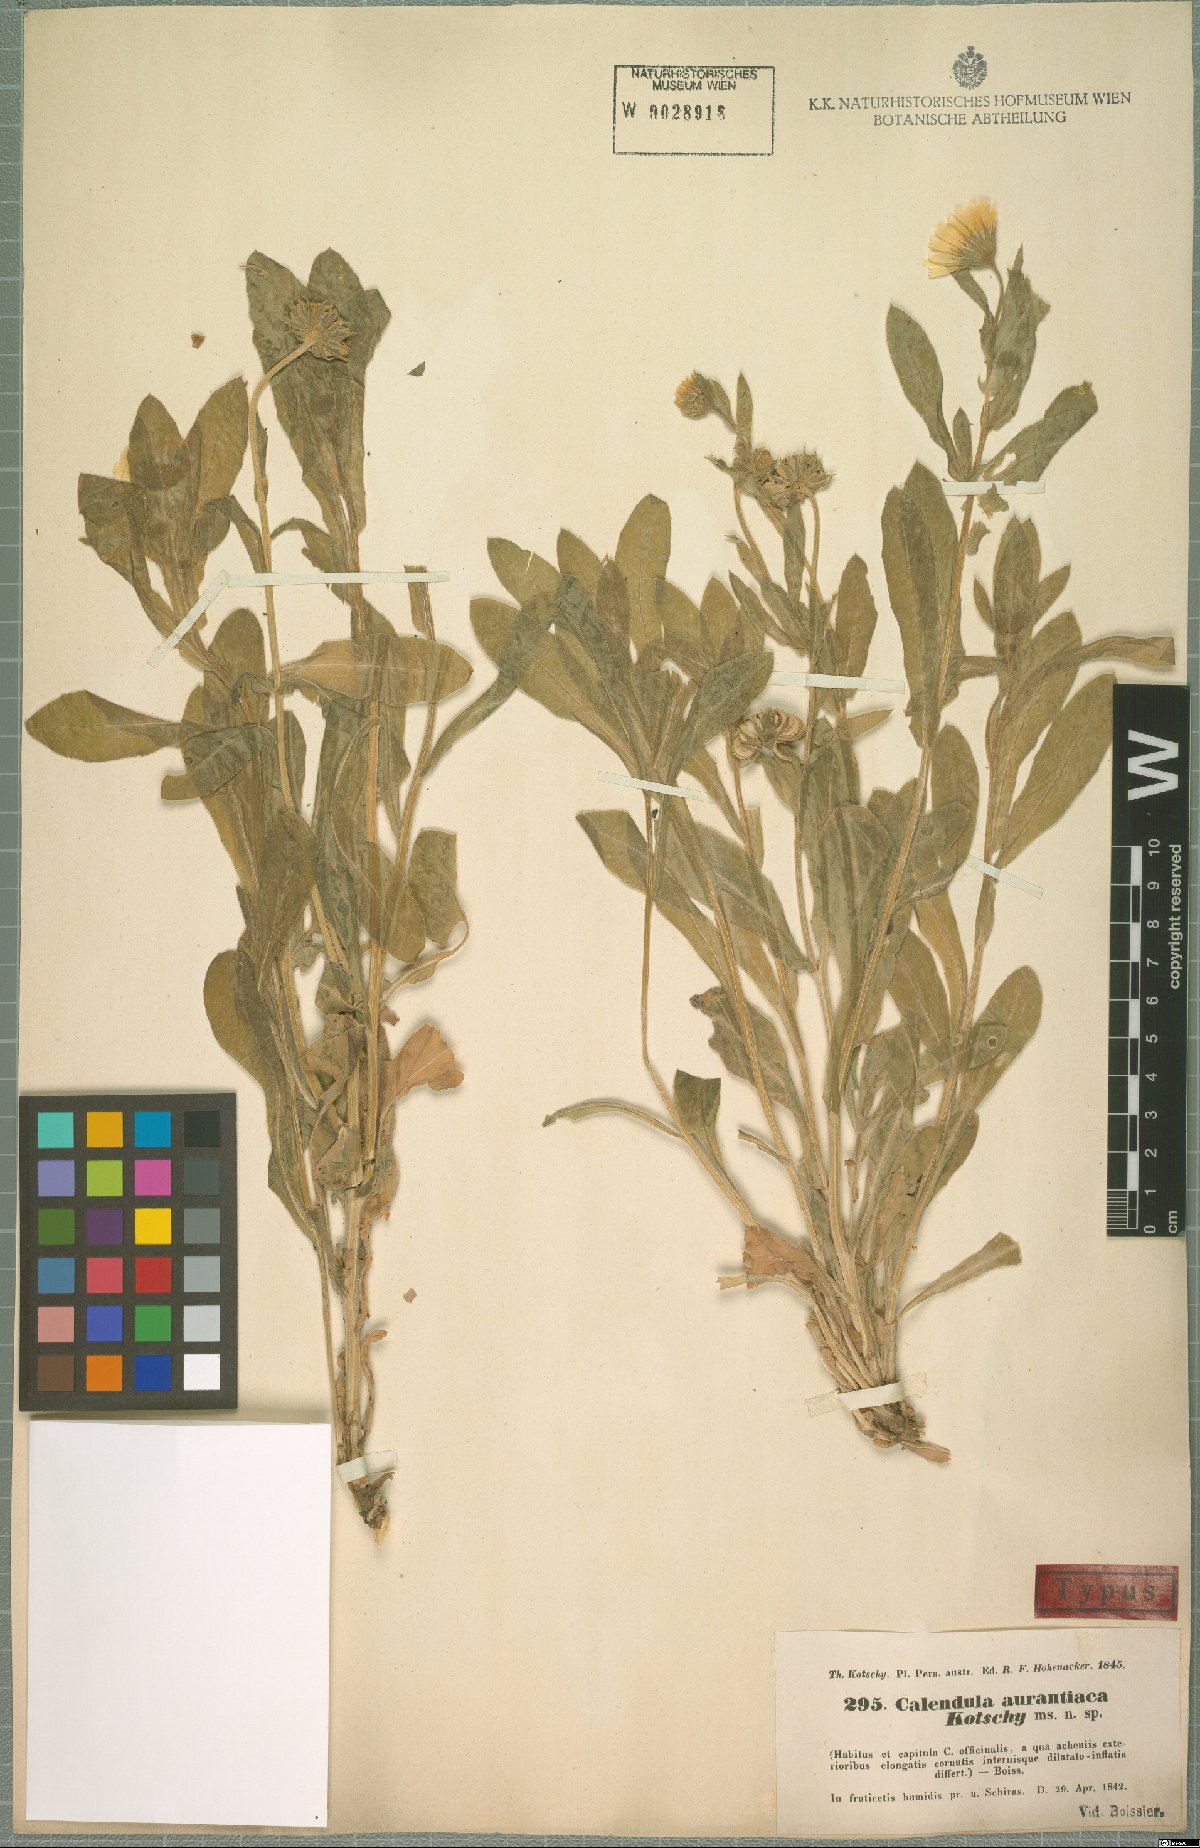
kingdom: Plantae
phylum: Tracheophyta
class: Magnoliopsida
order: Asterales
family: Asteraceae
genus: Calendula
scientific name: Calendula officinalis
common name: Pot marigold
